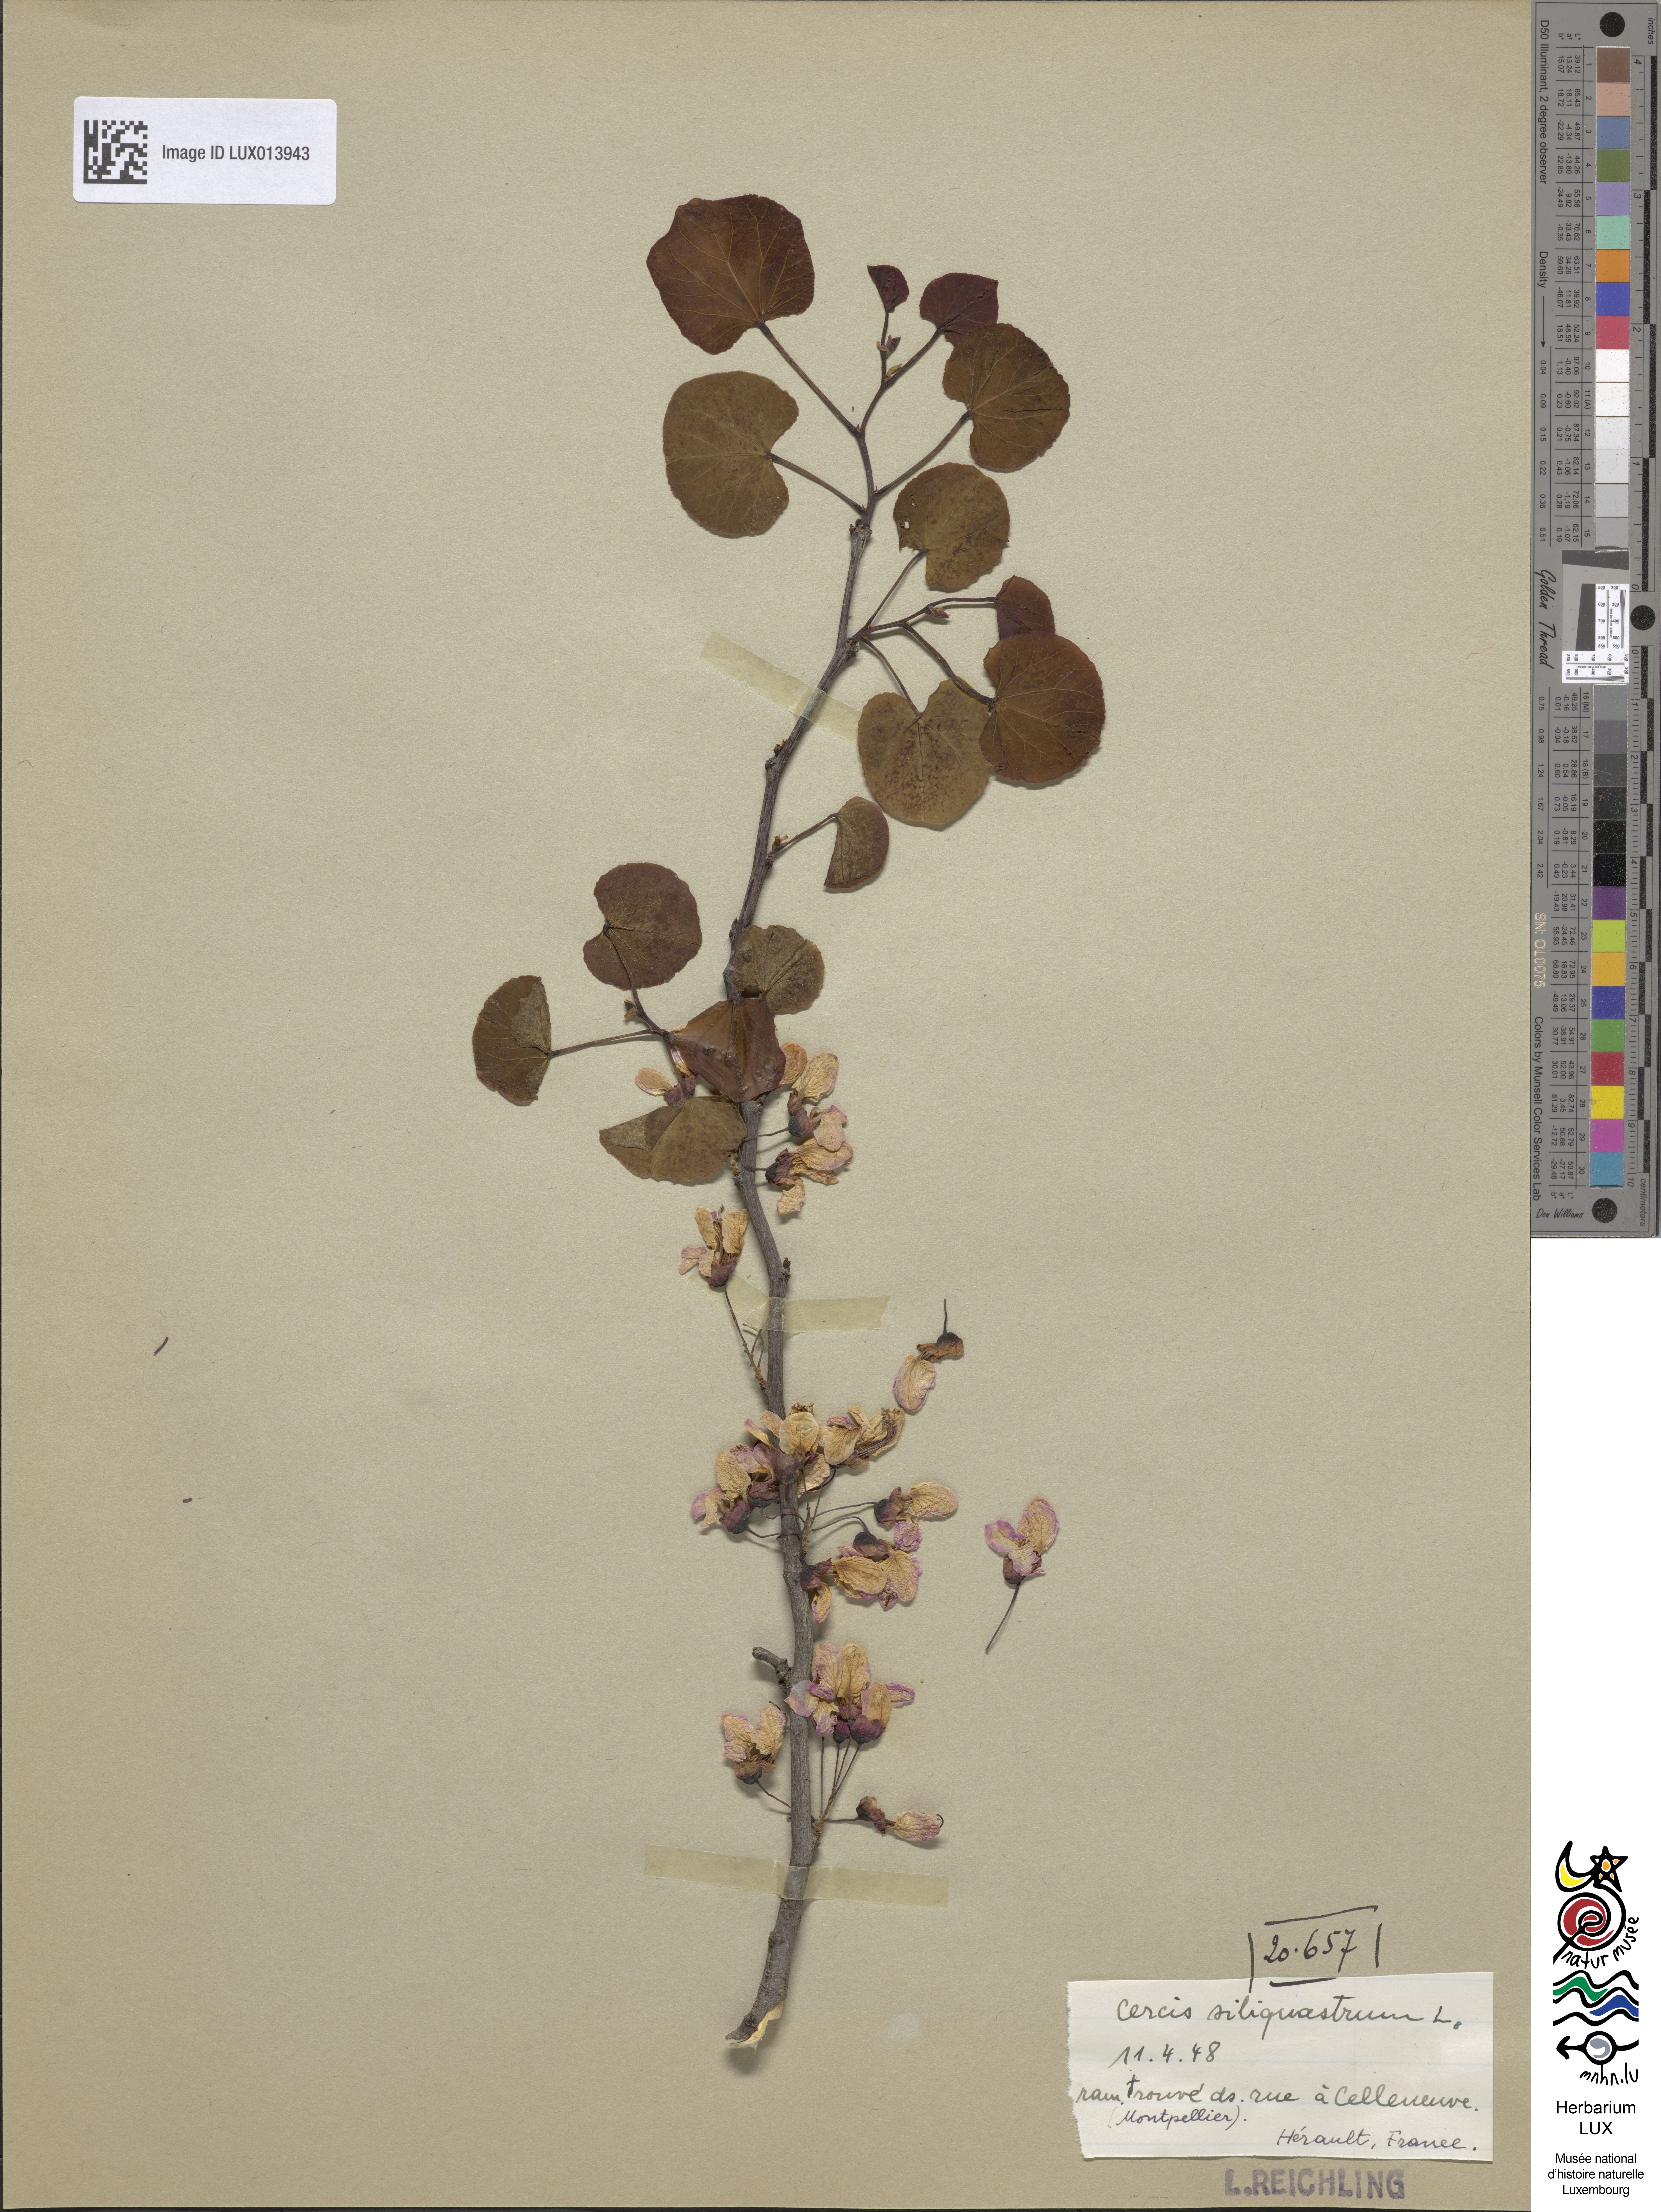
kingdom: Plantae
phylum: Tracheophyta
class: Magnoliopsida
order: Fabales
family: Fabaceae
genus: Cercis
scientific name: Cercis siliquastrum
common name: Judas tree
